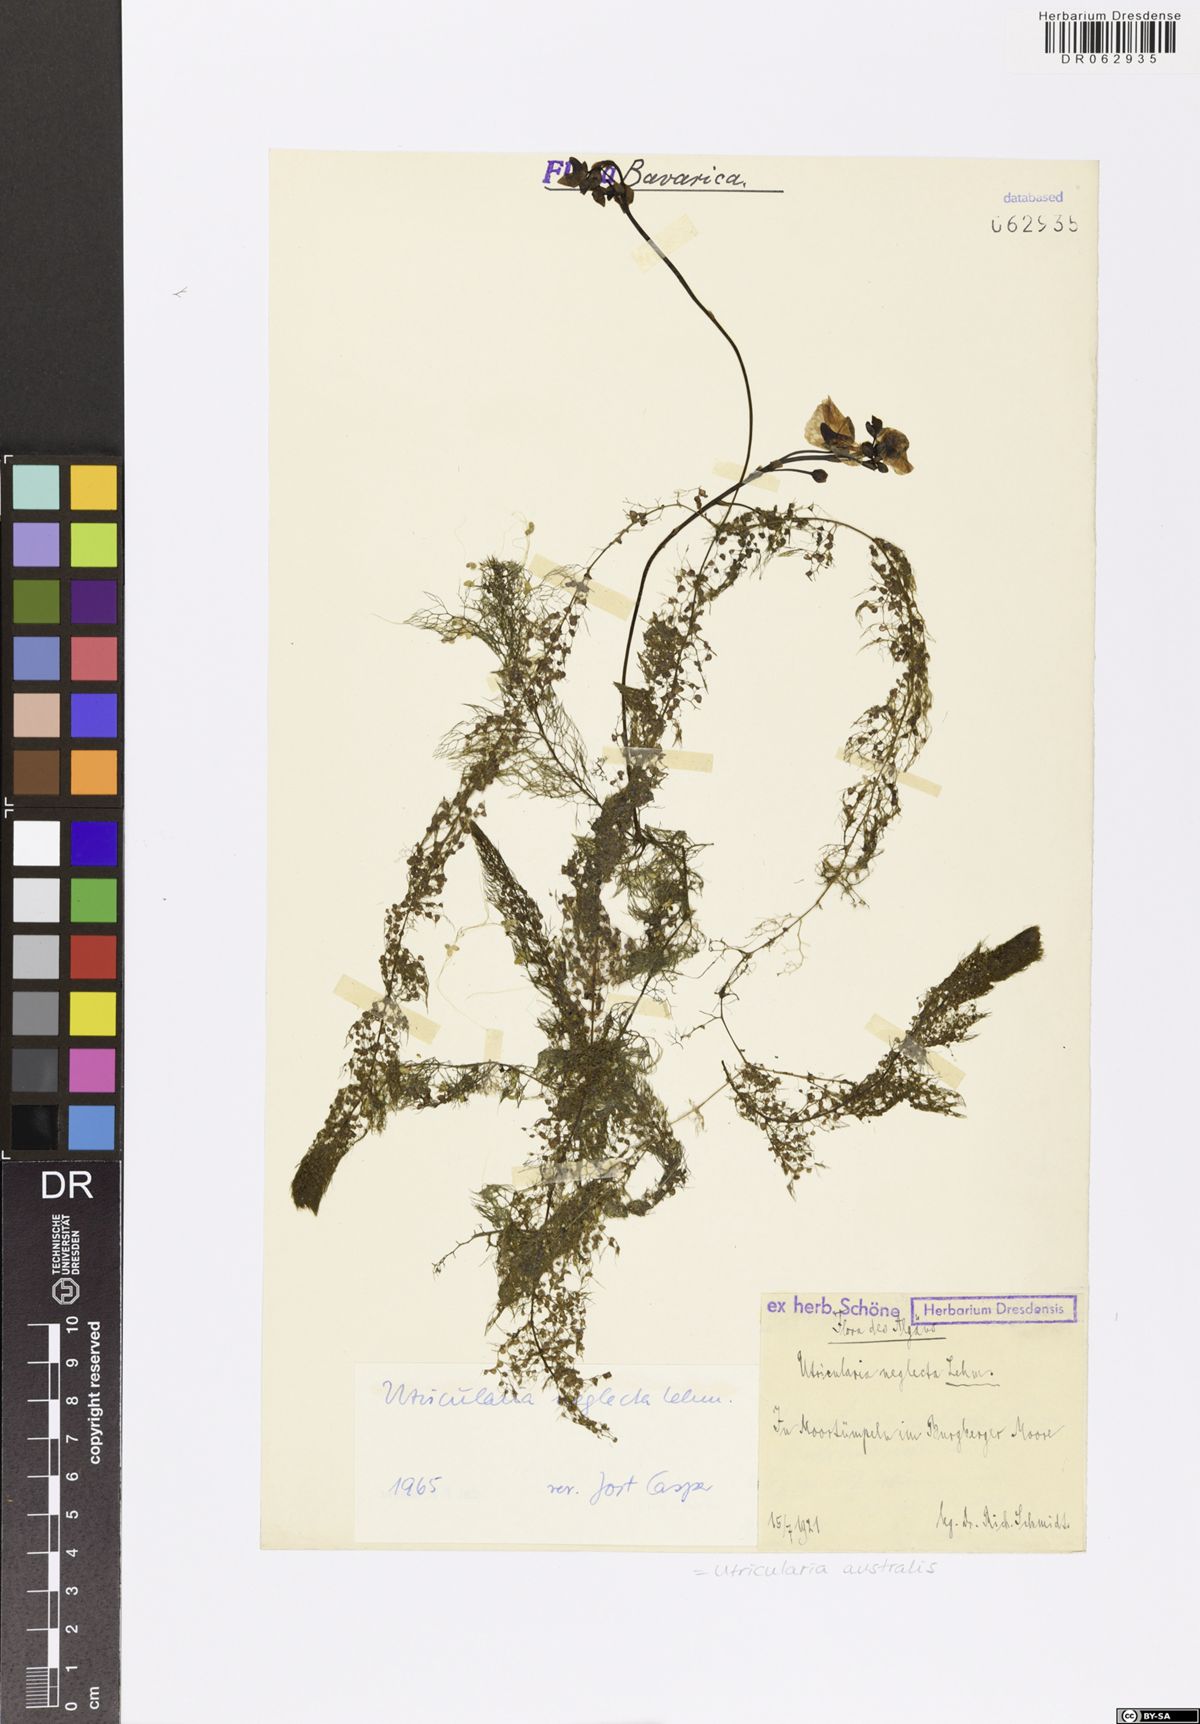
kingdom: Plantae
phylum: Tracheophyta
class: Magnoliopsida
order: Lamiales
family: Lentibulariaceae
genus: Utricularia
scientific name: Utricularia australis
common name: Bladderwort
